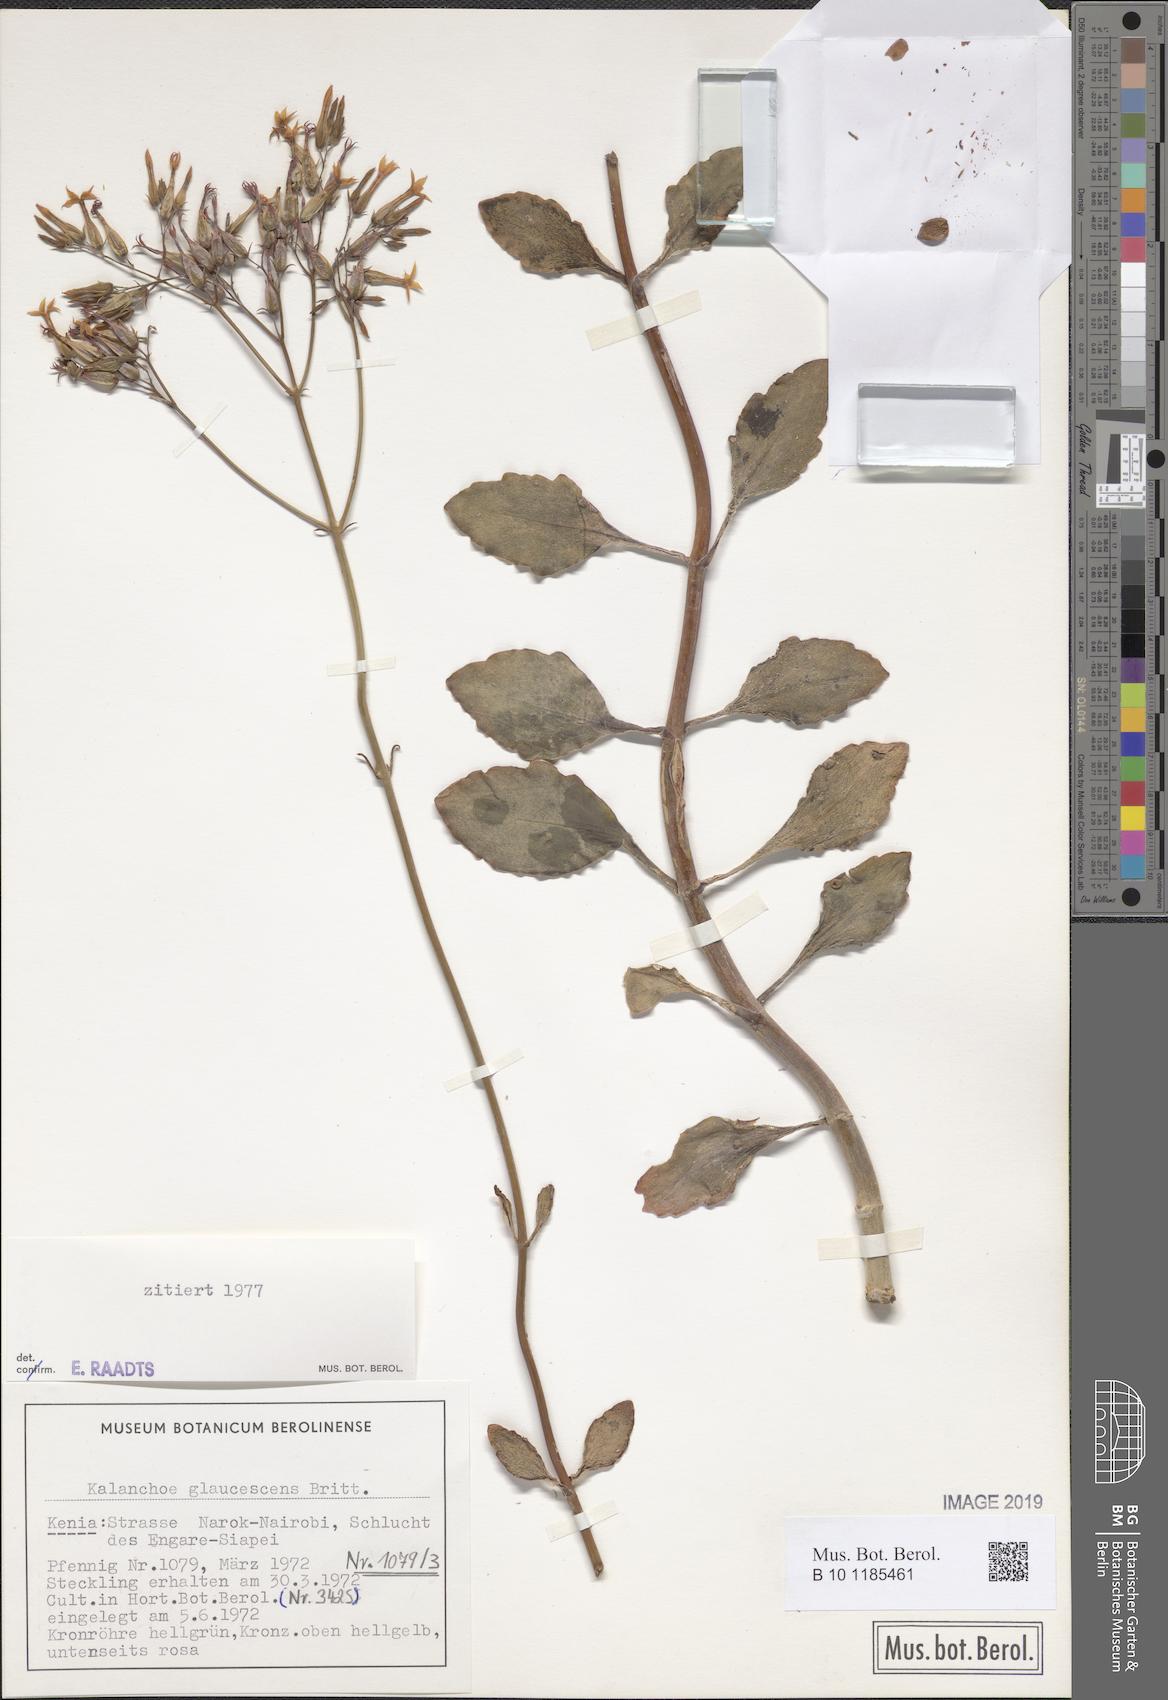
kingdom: Plantae
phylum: Tracheophyta
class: Magnoliopsida
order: Saxifragales
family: Crassulaceae
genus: Kalanchoe
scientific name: Kalanchoe glaucescens
